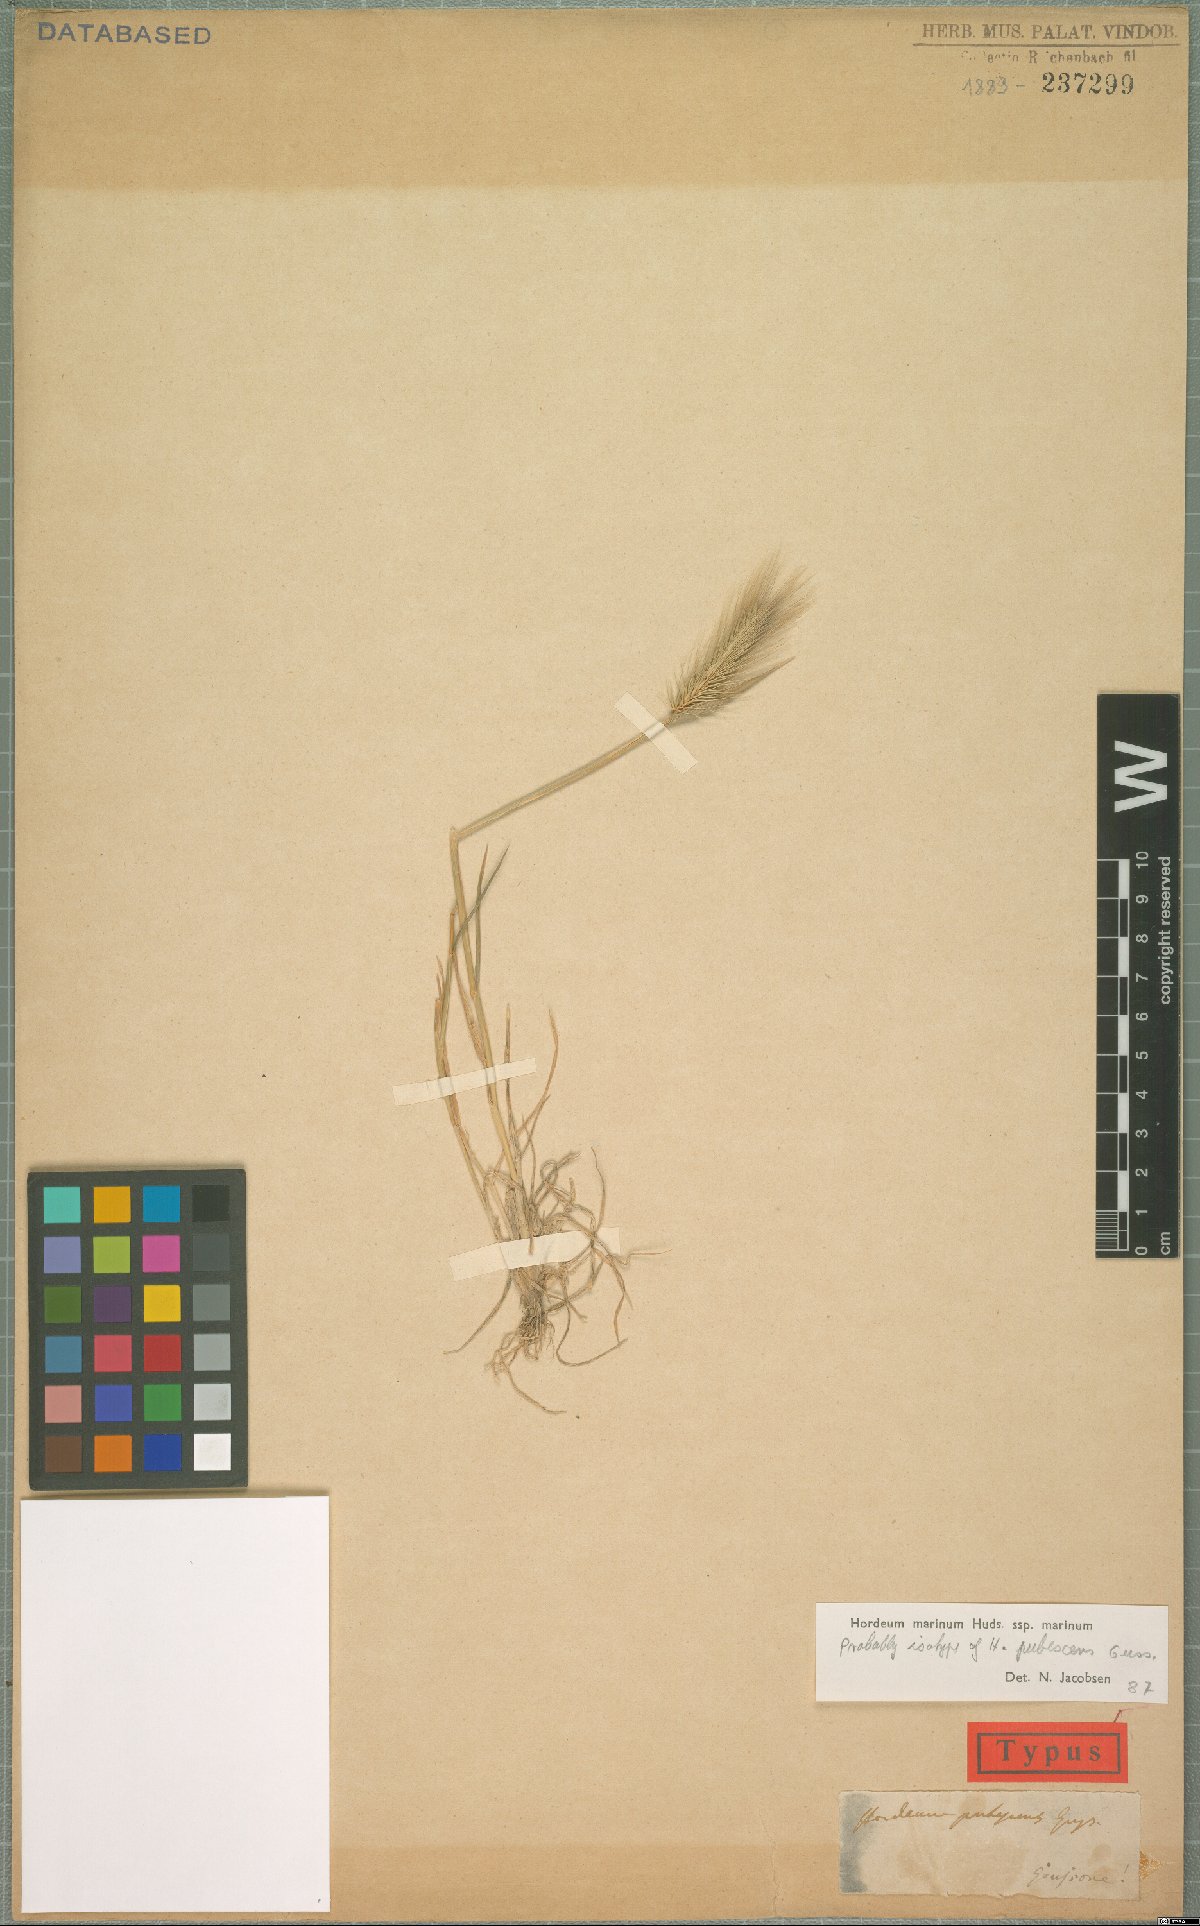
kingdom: Plantae
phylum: Tracheophyta
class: Liliopsida
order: Poales
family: Poaceae
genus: Hordeum
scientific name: Hordeum marinum
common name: Sea barley
